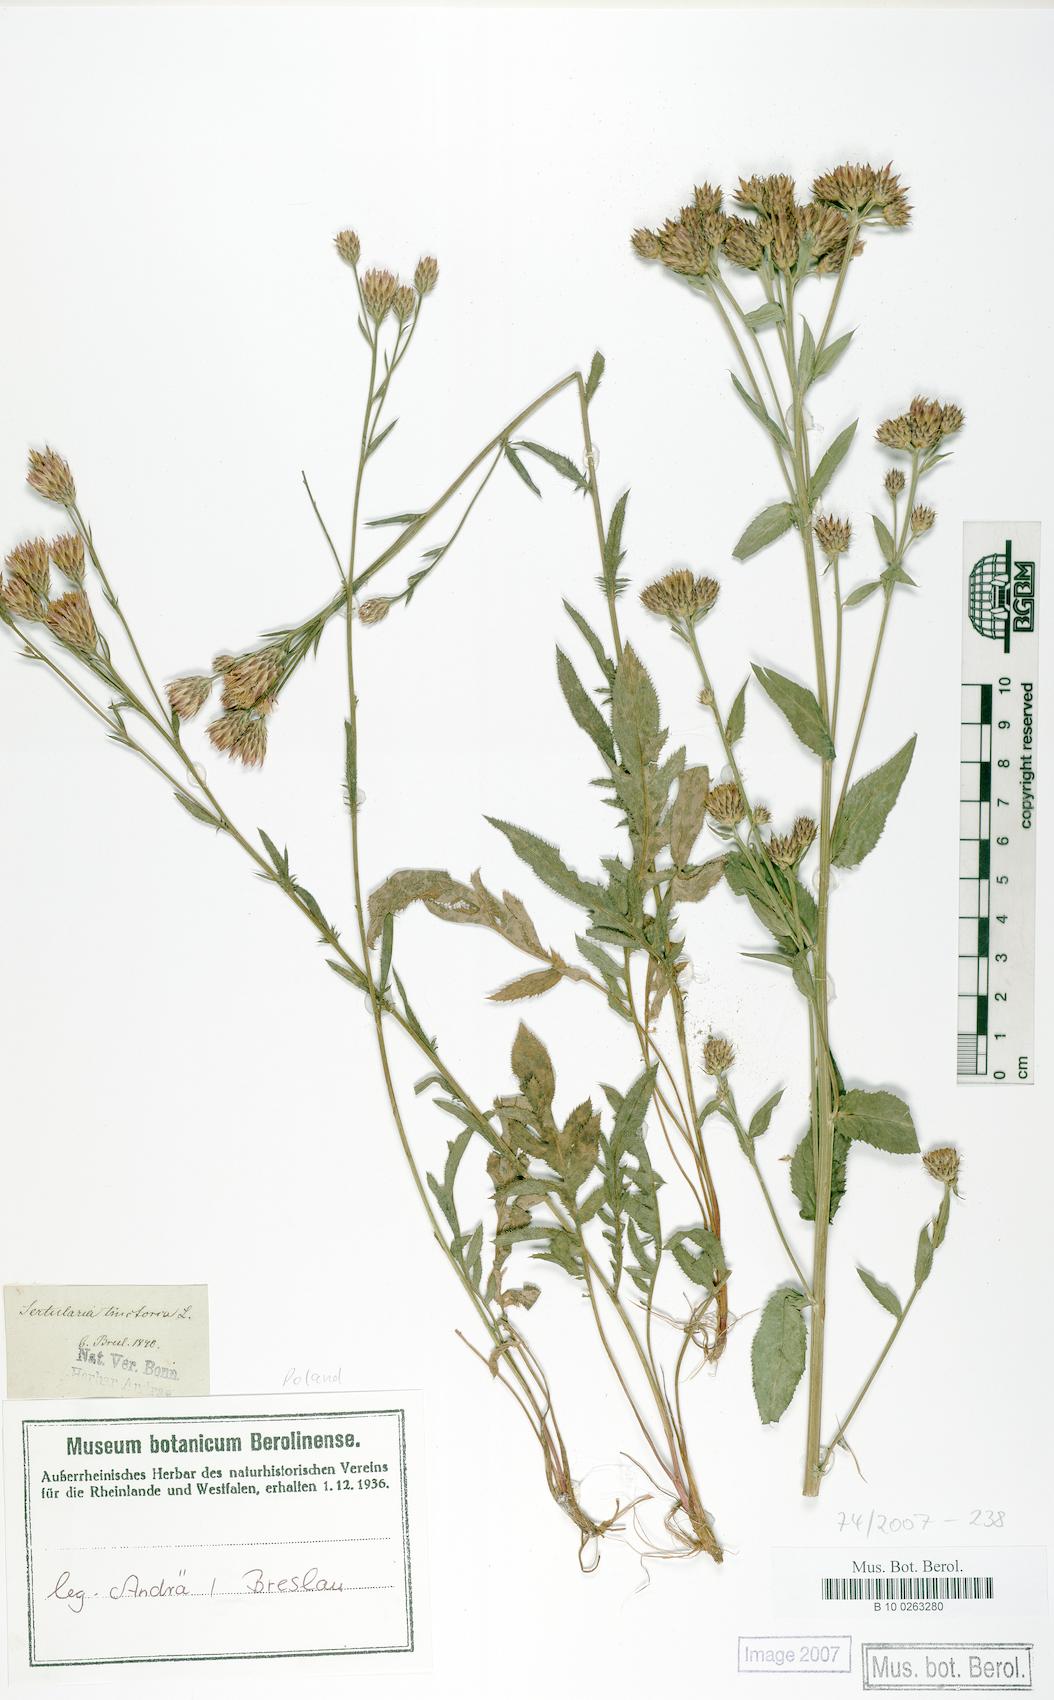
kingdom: Plantae
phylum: Tracheophyta
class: Magnoliopsida
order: Asterales
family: Asteraceae
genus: Serratula
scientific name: Serratula tinctoria
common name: Saw-wort
